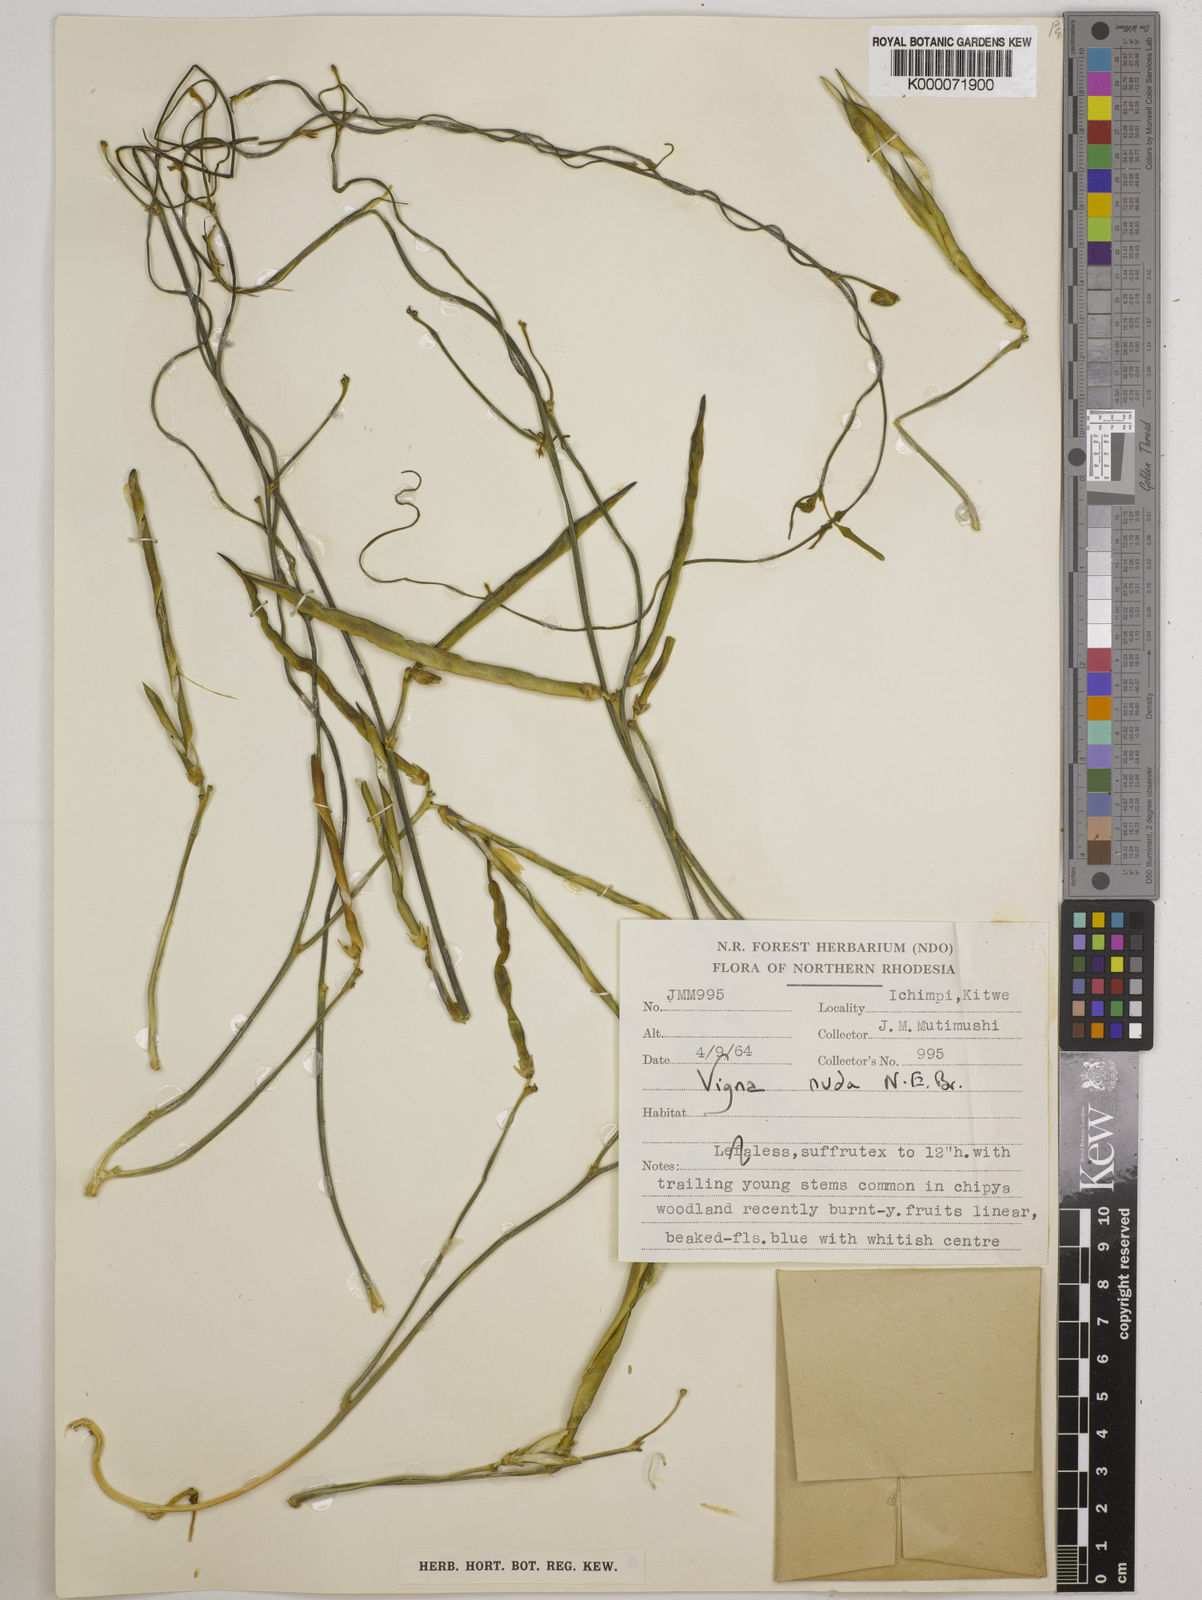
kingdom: Plantae
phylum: Tracheophyta
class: Magnoliopsida
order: Fabales
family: Fabaceae
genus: Vigna
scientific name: Vigna antunesii
